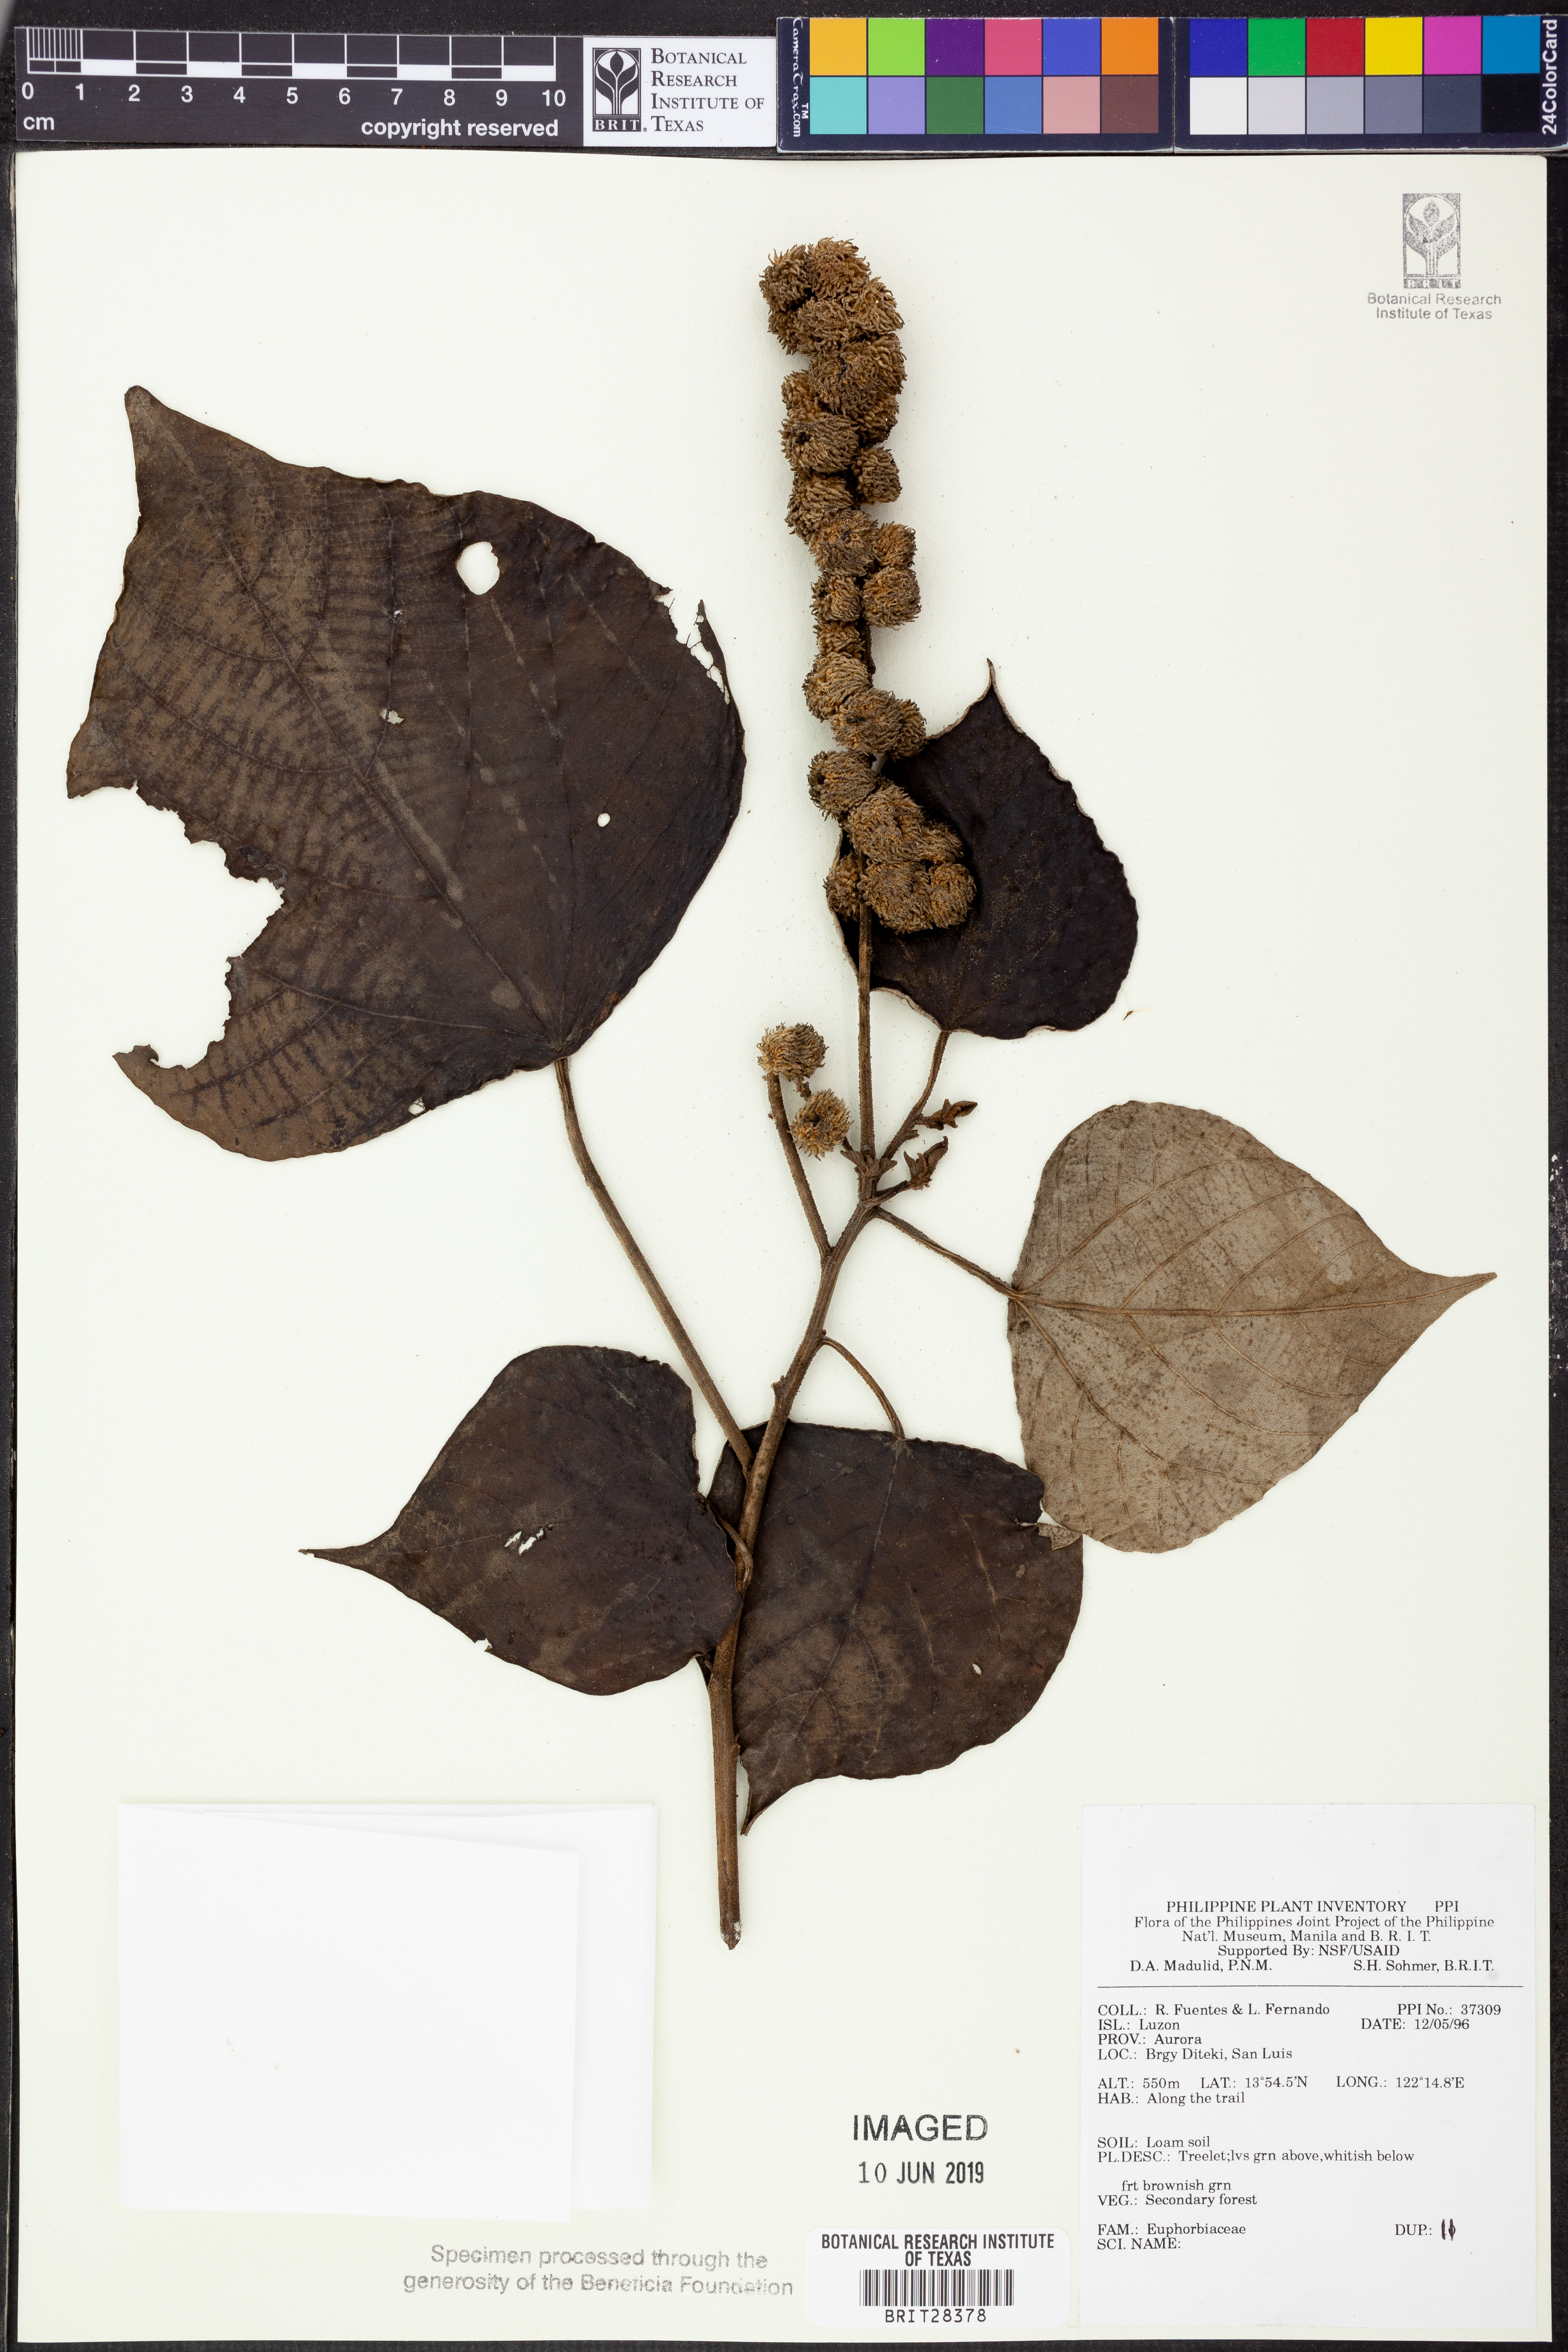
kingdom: Plantae
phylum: Tracheophyta
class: Magnoliopsida
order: Malpighiales
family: Euphorbiaceae
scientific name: Euphorbiaceae
